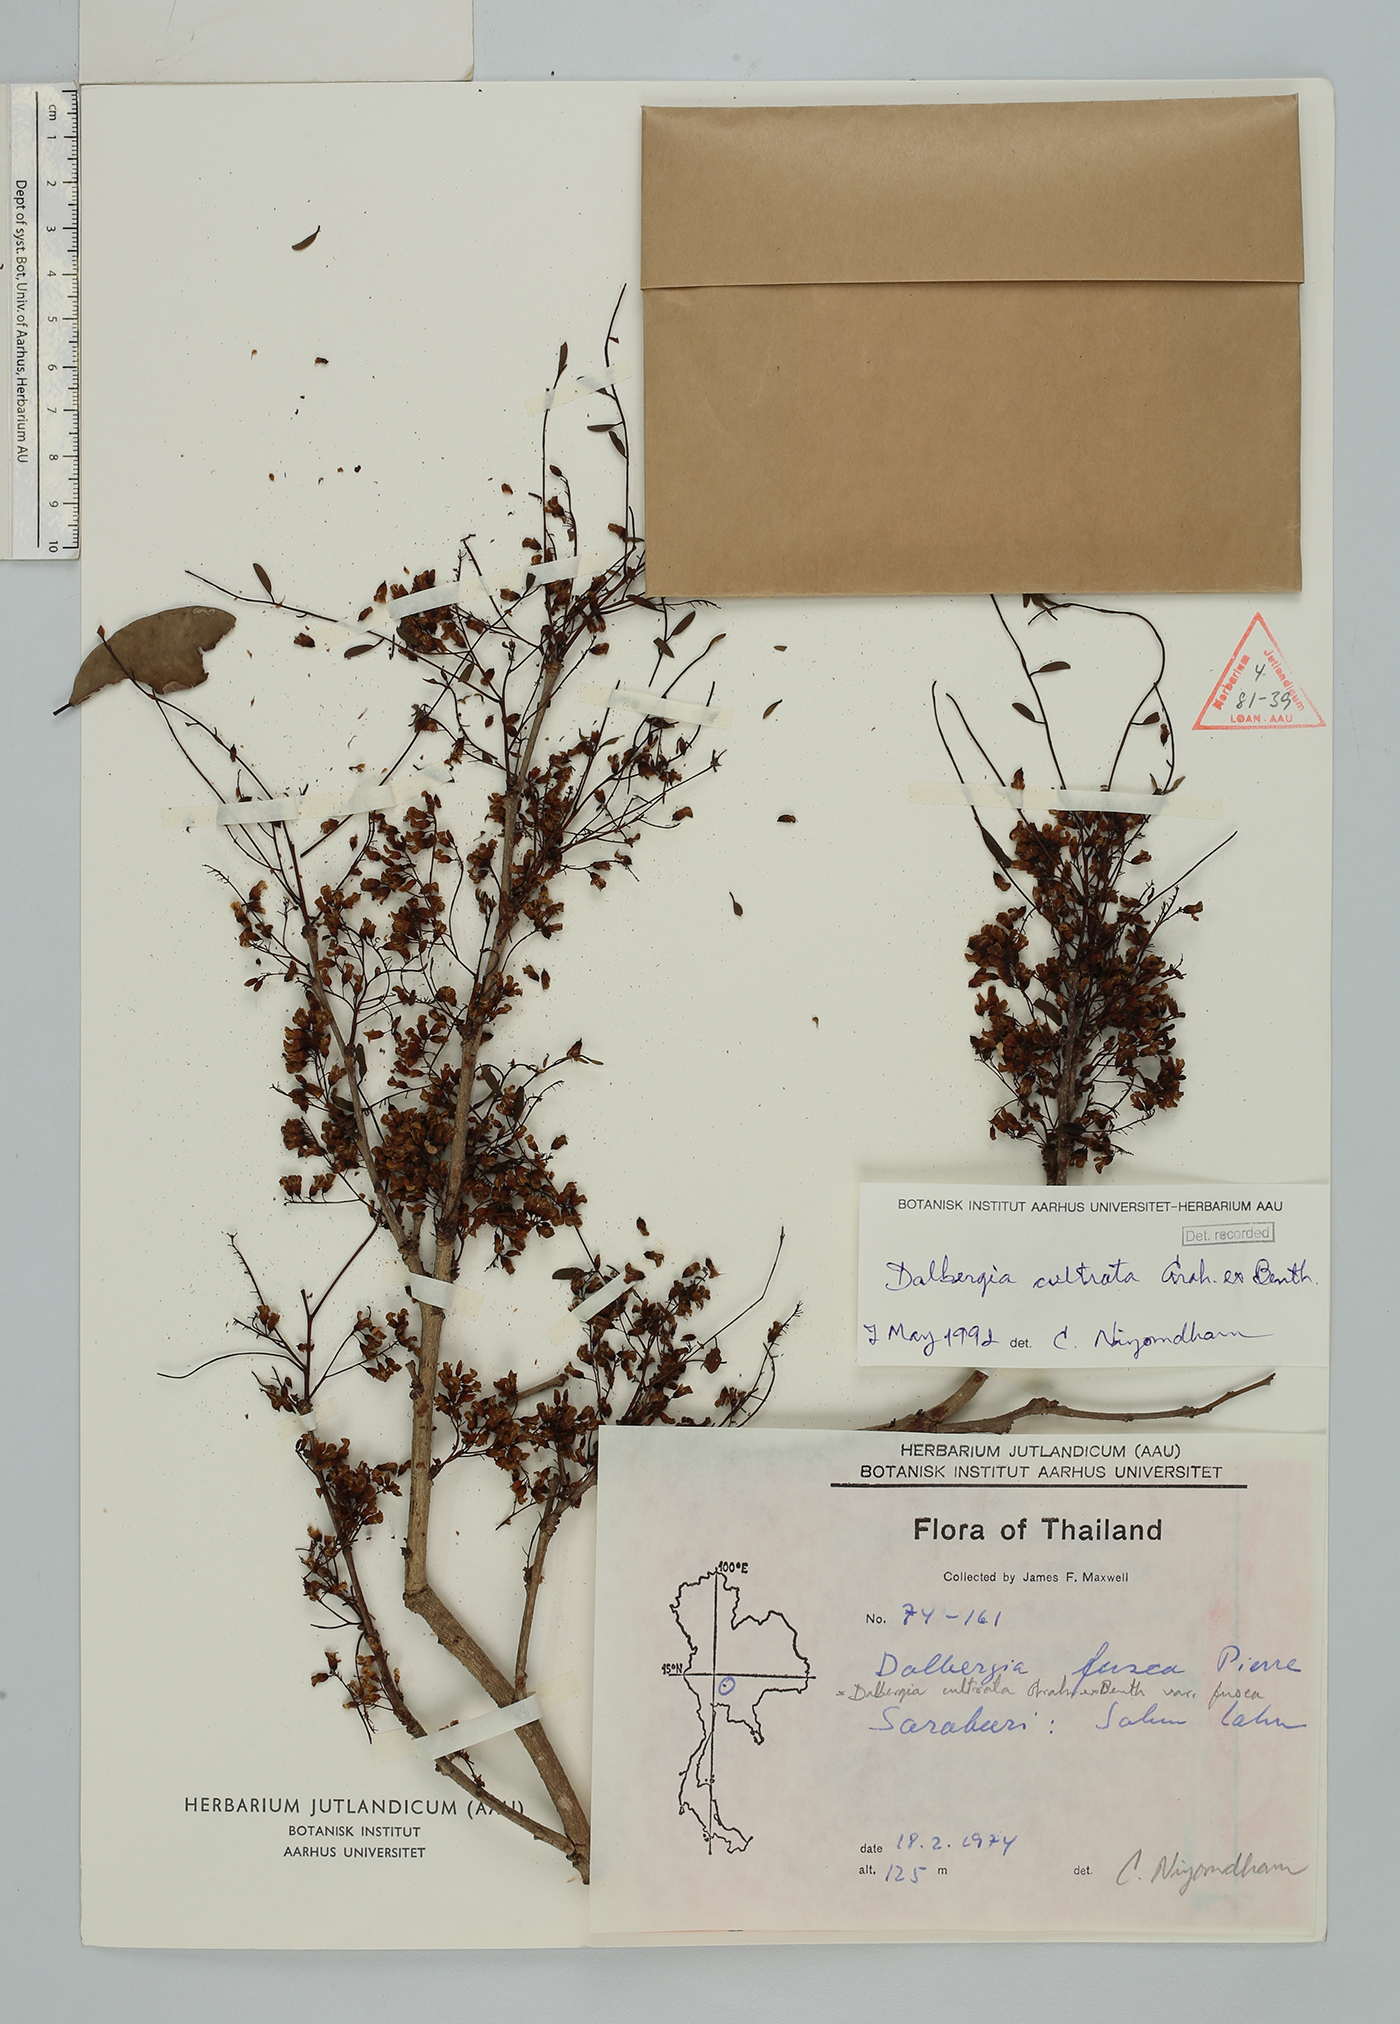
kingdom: Plantae
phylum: Tracheophyta
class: Magnoliopsida
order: Fabales
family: Fabaceae
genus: Dalbergia
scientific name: Dalbergia cultrata
